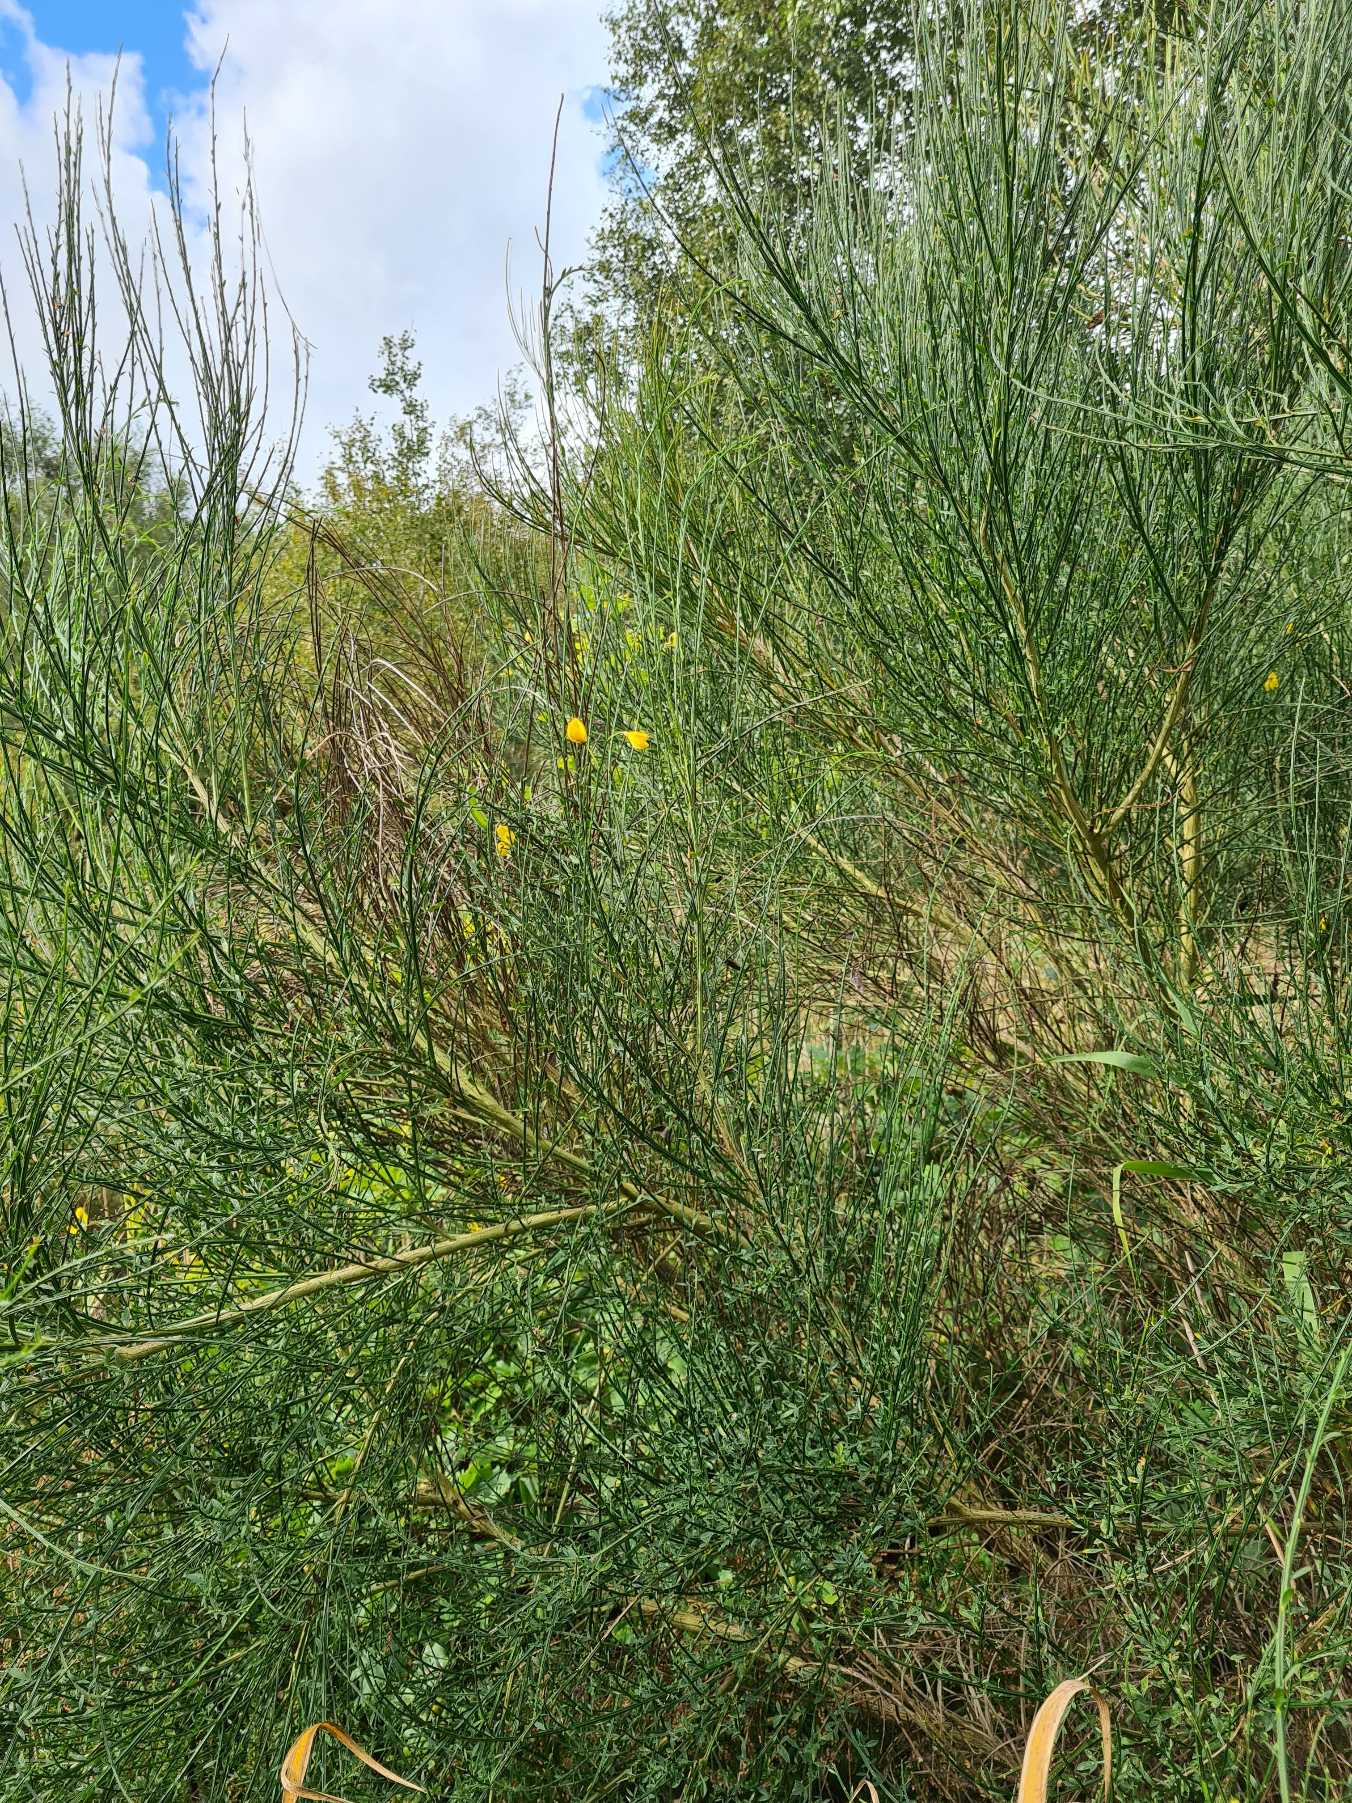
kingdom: Plantae
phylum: Tracheophyta
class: Magnoliopsida
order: Fabales
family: Fabaceae
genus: Cytisus
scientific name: Cytisus scoparius
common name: Almindelig gyvel
